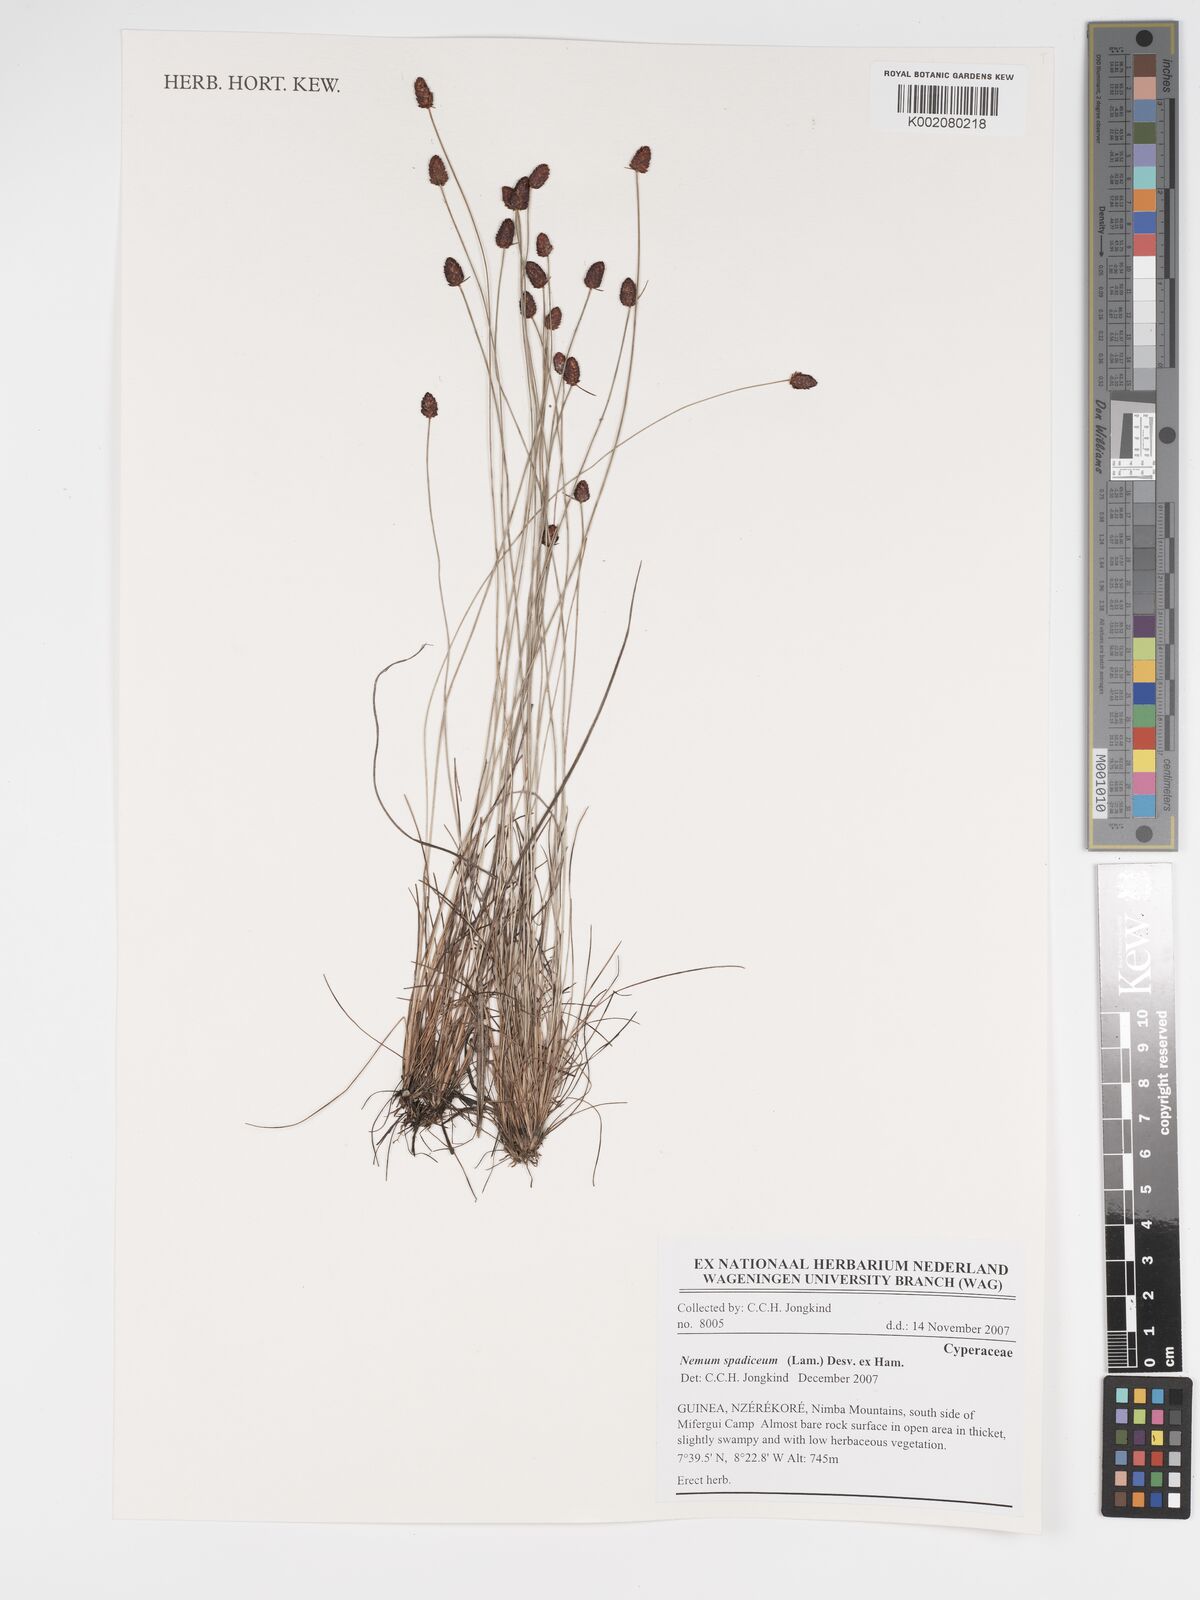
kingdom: Plantae
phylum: Tracheophyta
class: Liliopsida
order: Poales
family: Cyperaceae
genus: Bulbostylis
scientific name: Bulbostylis briziformis
